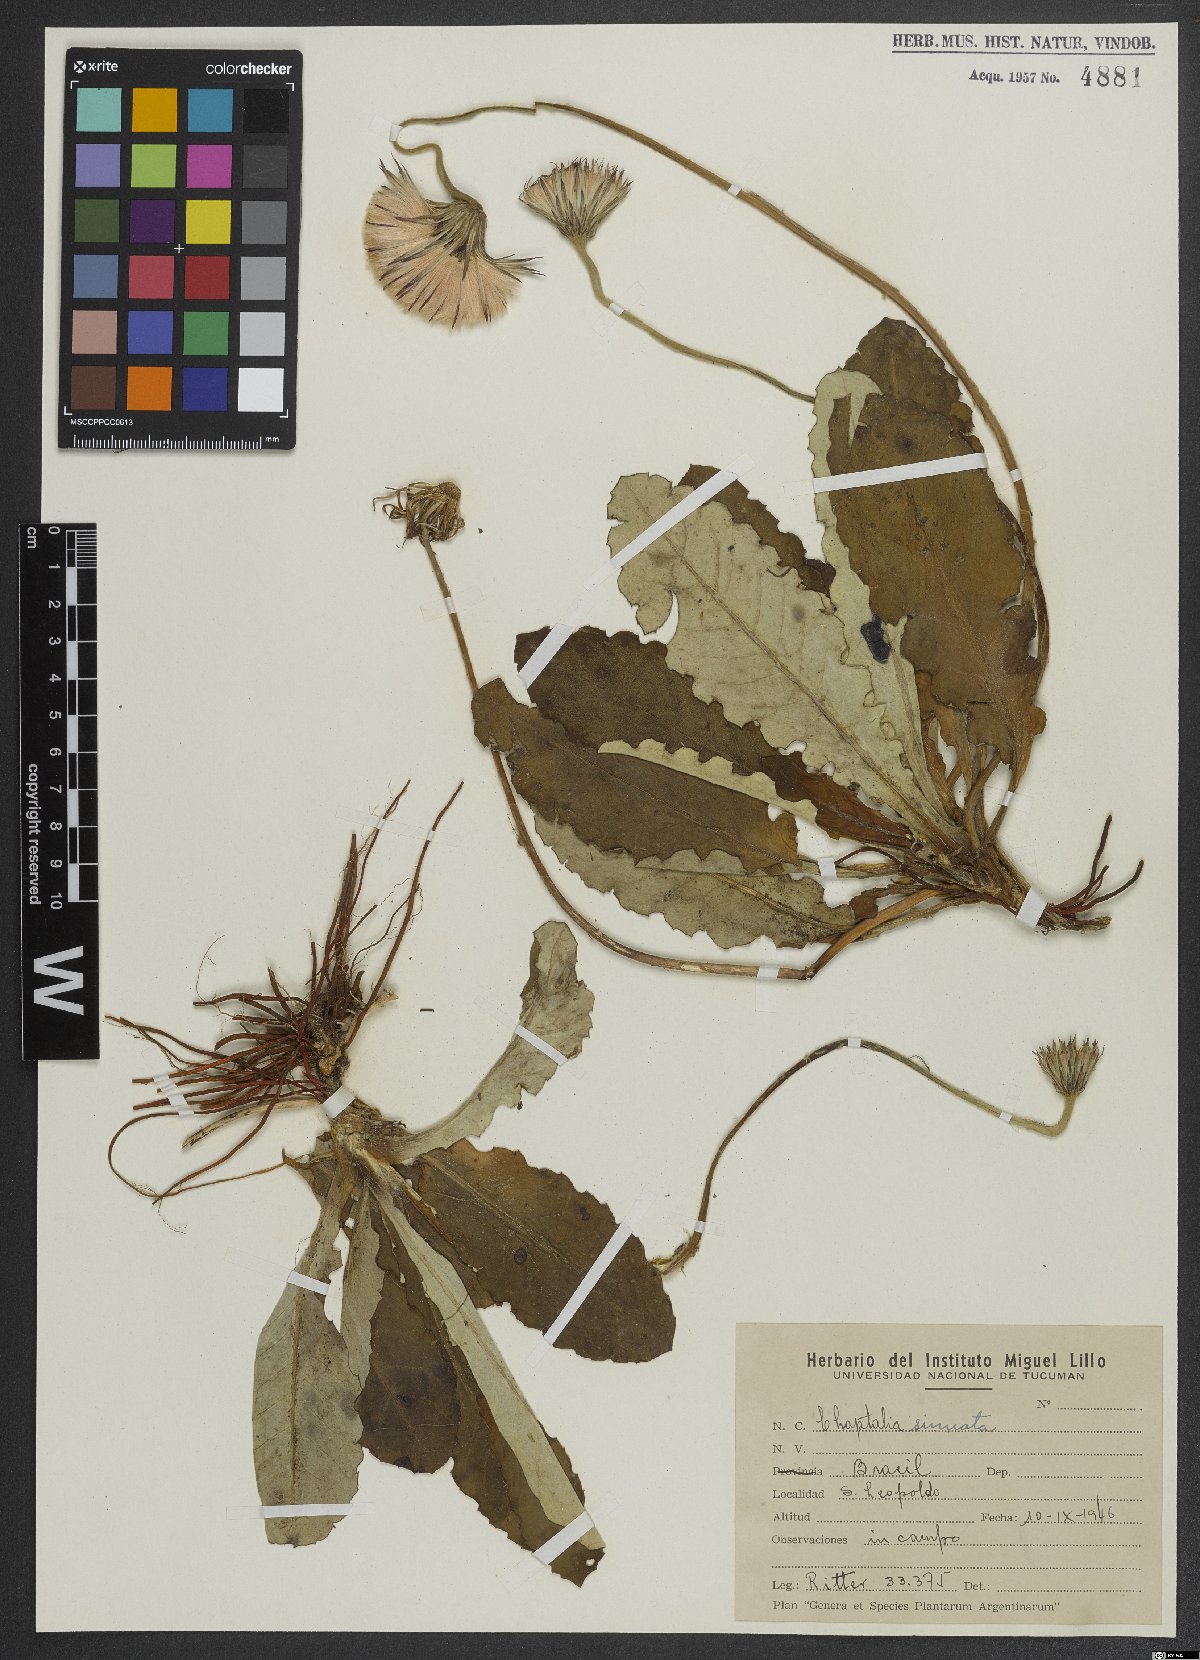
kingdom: Plantae
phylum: Tracheophyta
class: Magnoliopsida
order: Asterales
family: Asteraceae
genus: Chaptalia
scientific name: Chaptalia sinuata
